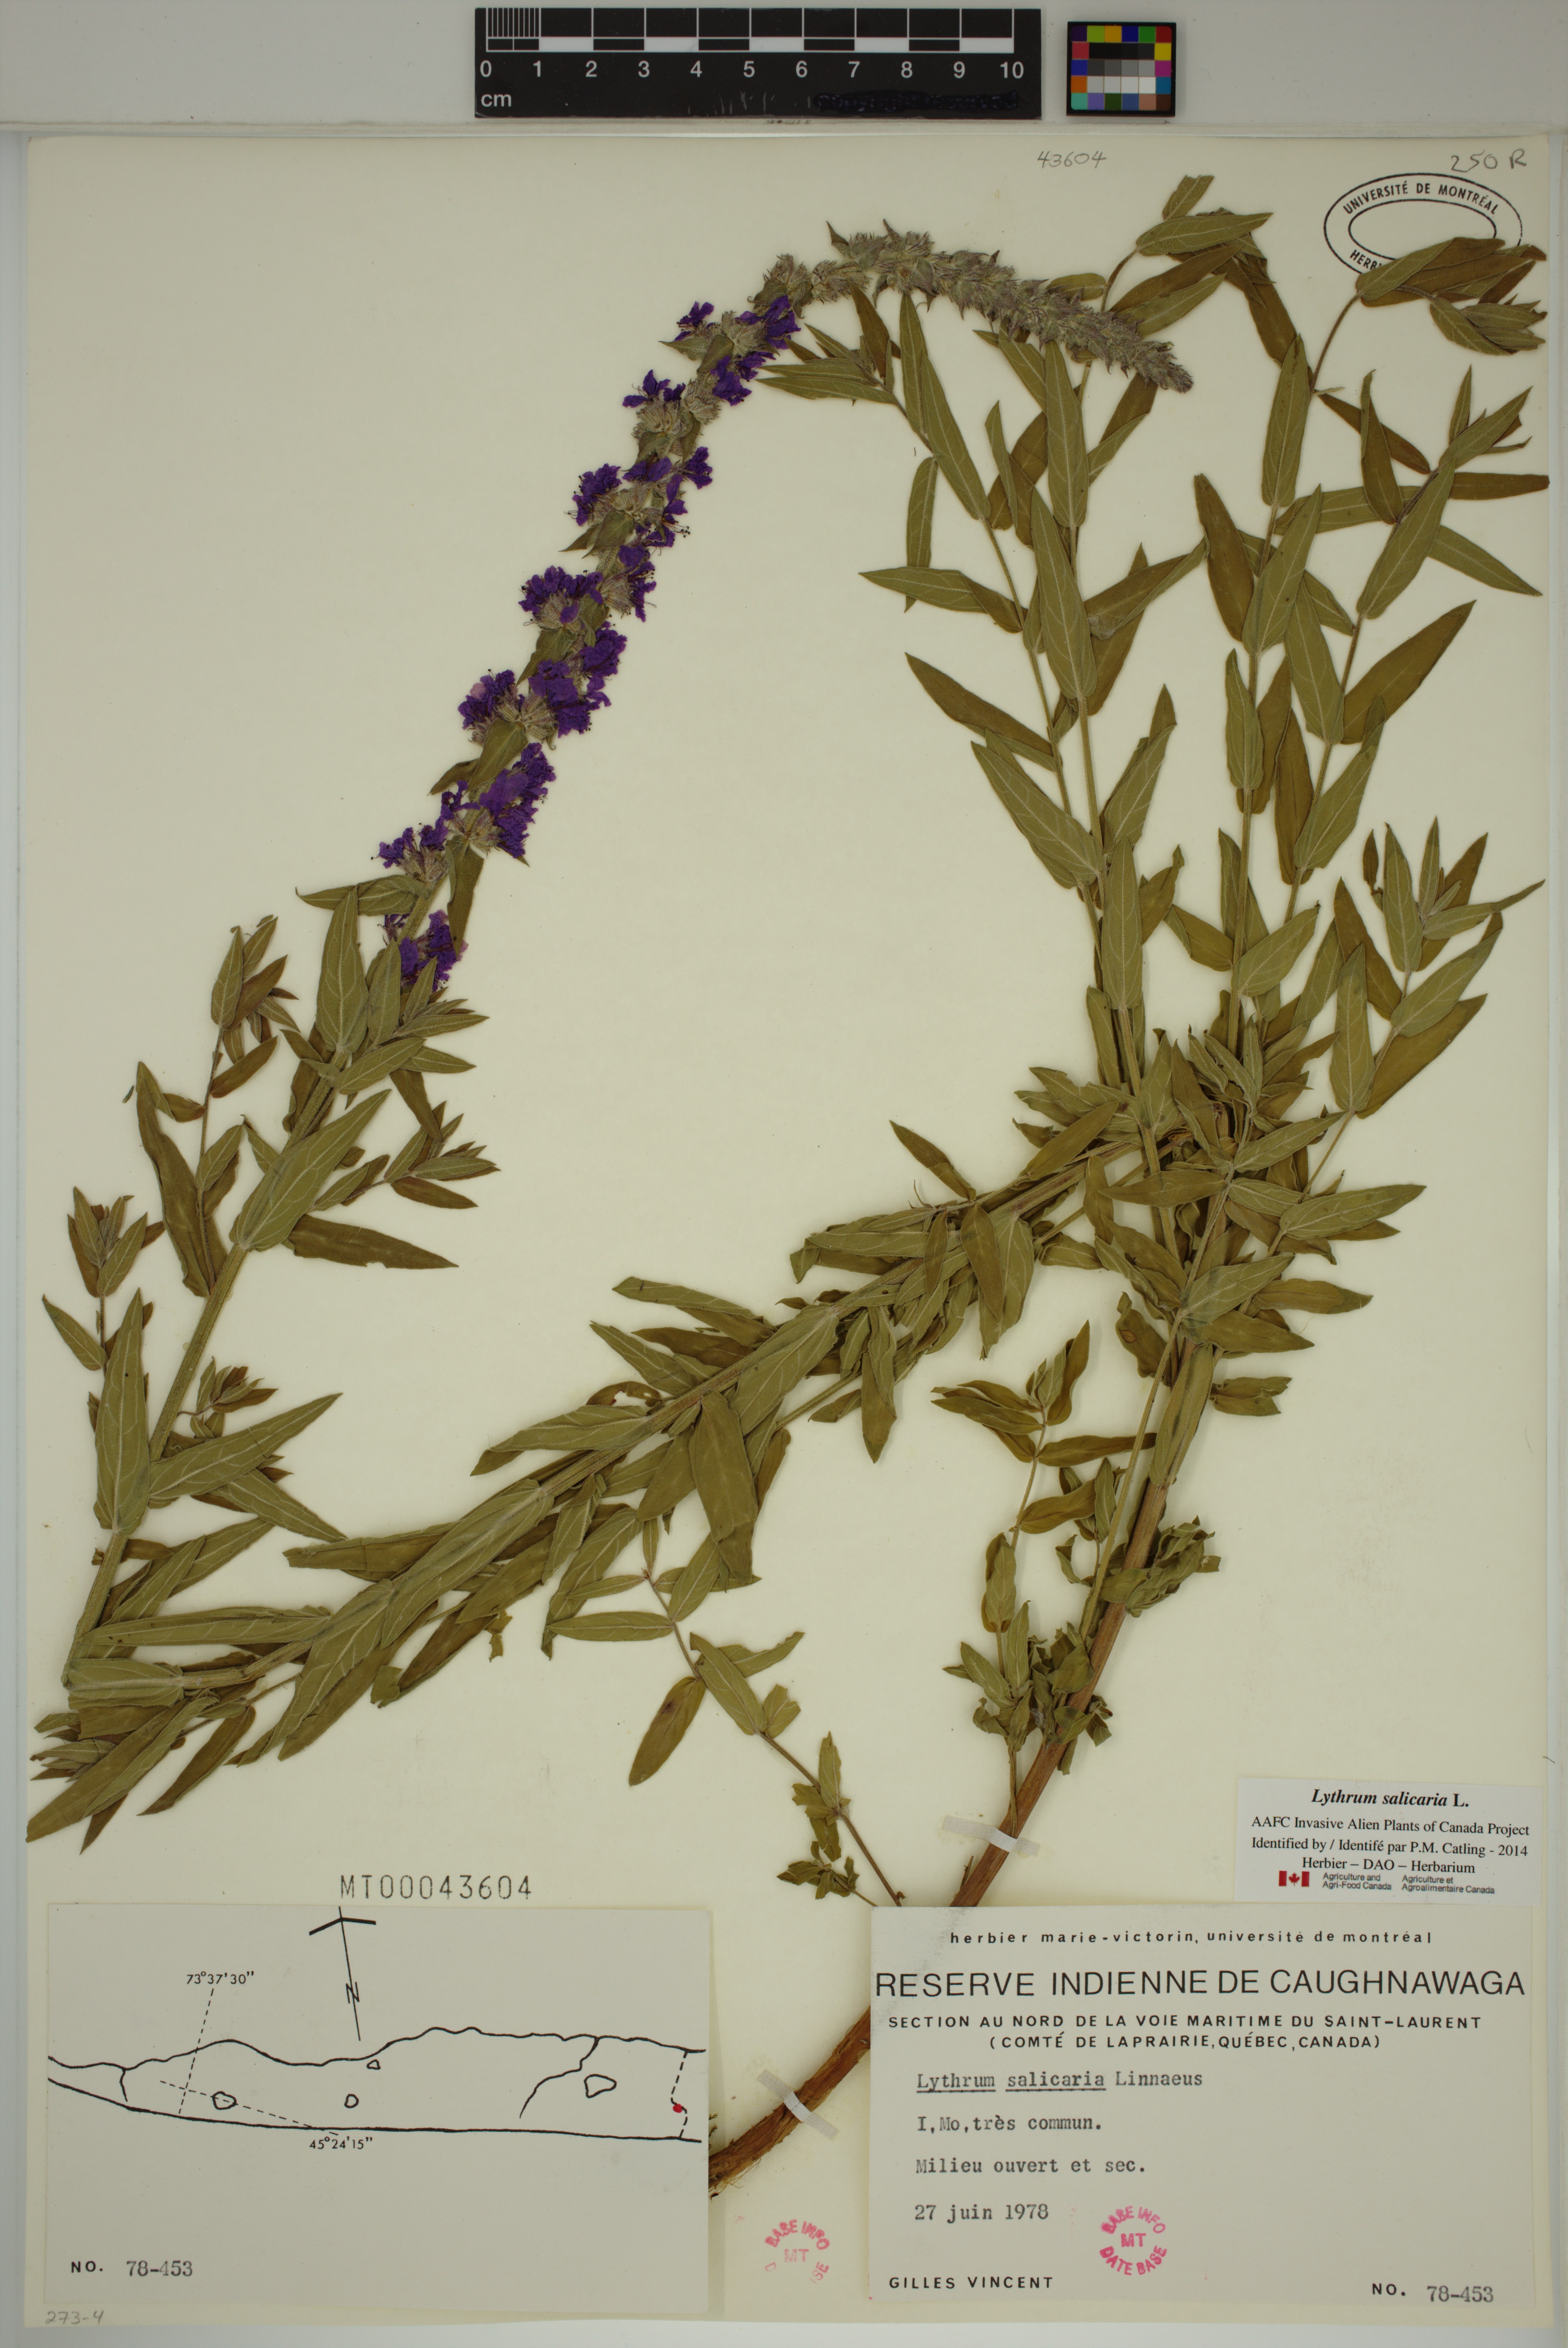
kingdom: Plantae
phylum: Tracheophyta
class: Magnoliopsida
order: Myrtales
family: Lythraceae
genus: Lythrum
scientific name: Lythrum salicaria
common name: Purple loosestrife
